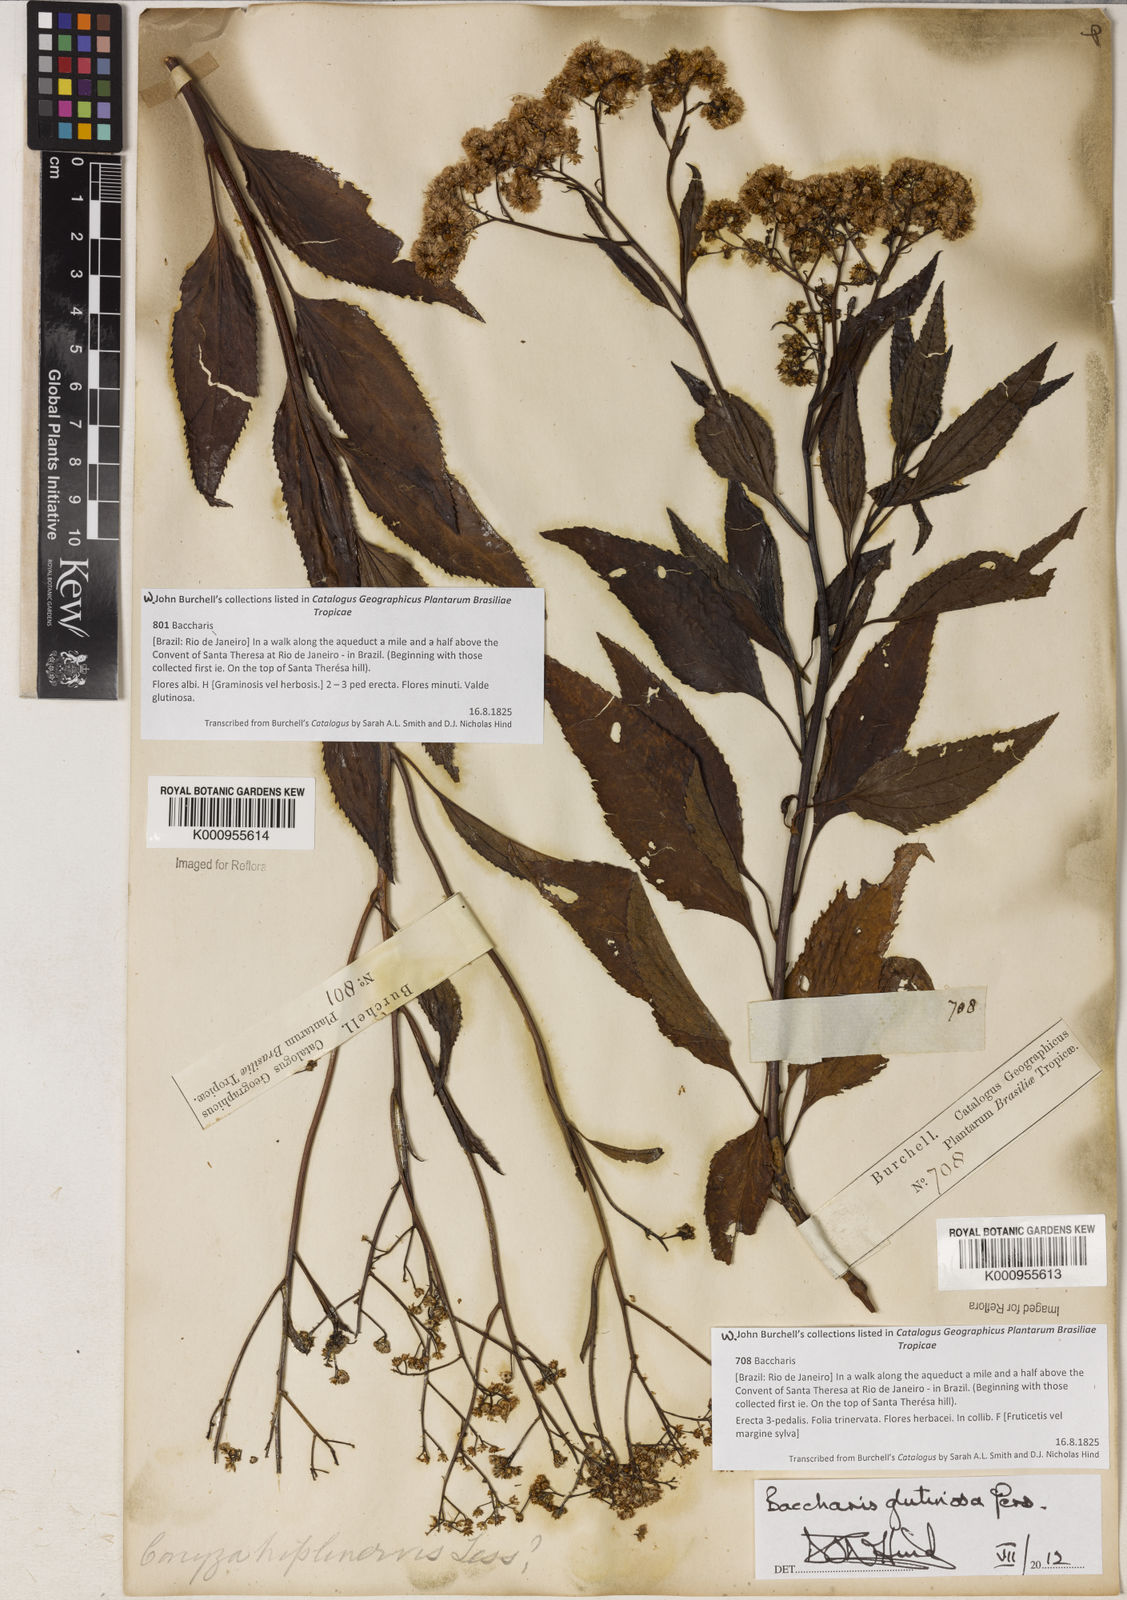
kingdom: Plantae
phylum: Tracheophyta
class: Magnoliopsida
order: Asterales
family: Asteraceae
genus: Baccharis
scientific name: Baccharis
